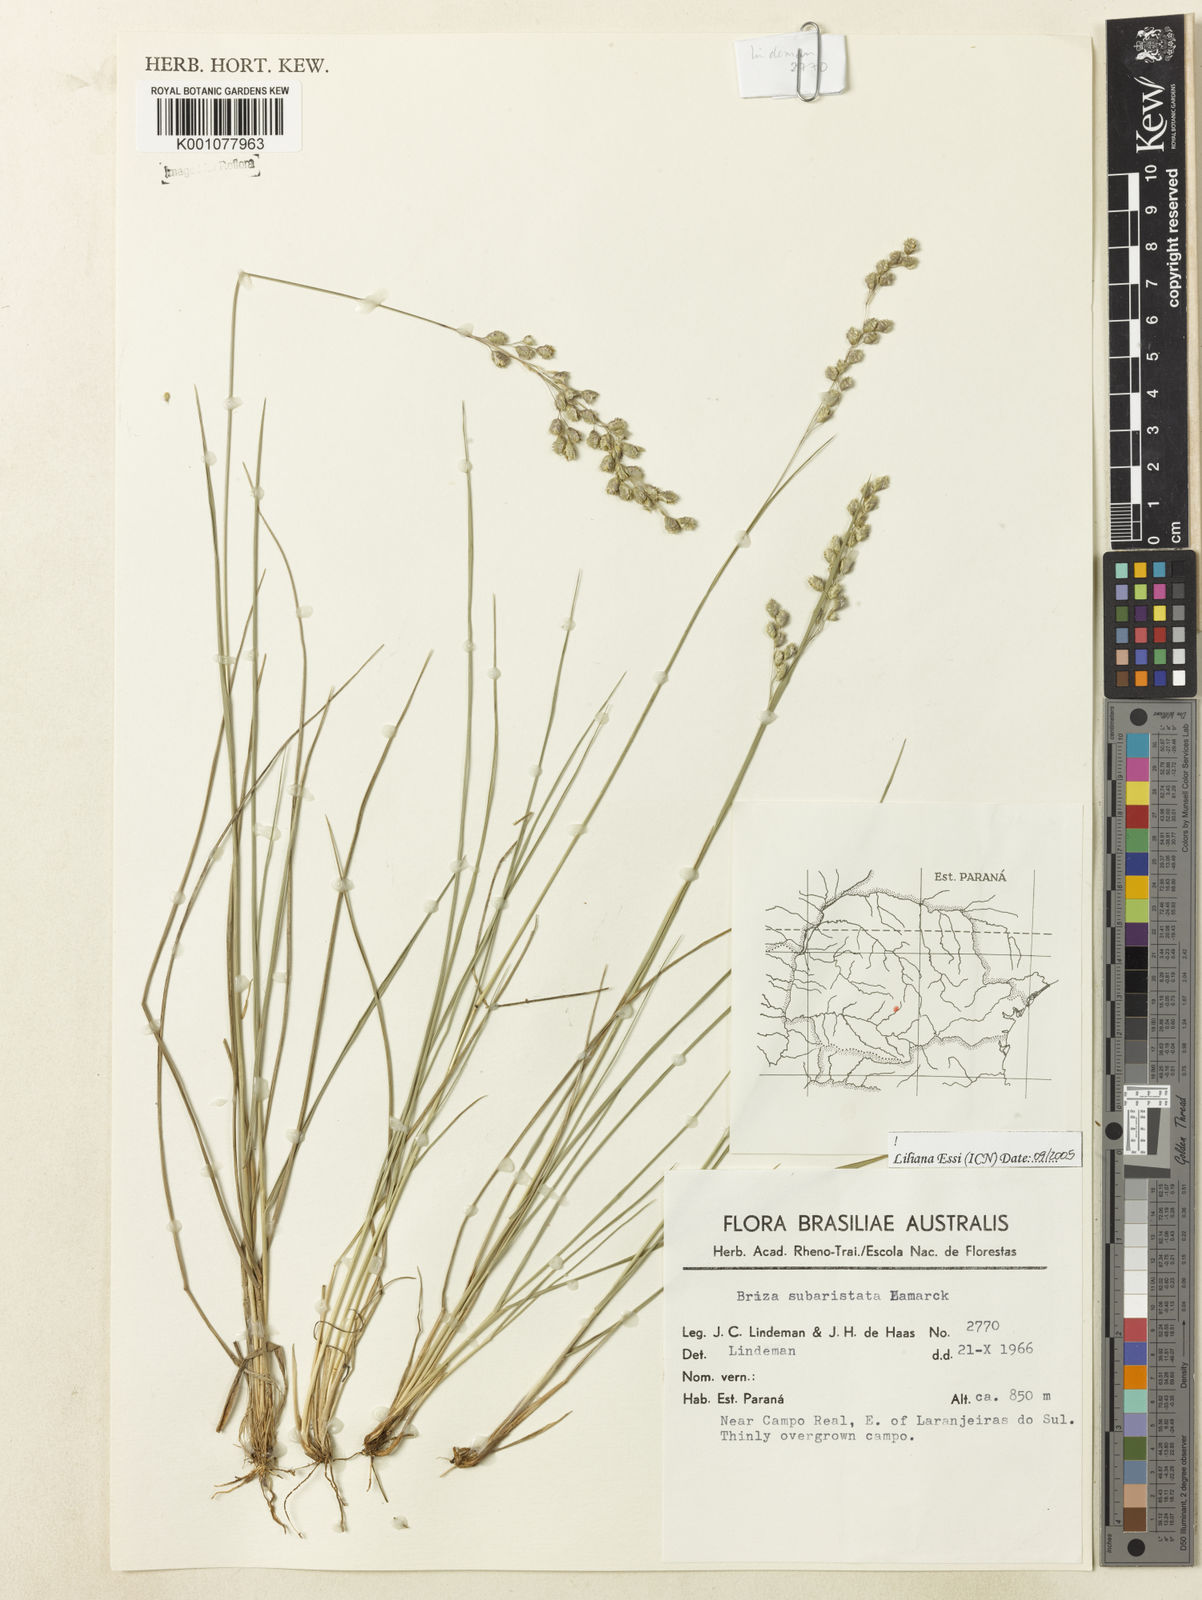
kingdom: Plantae
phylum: Tracheophyta
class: Liliopsida
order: Poales
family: Poaceae
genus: Briza
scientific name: Briza
